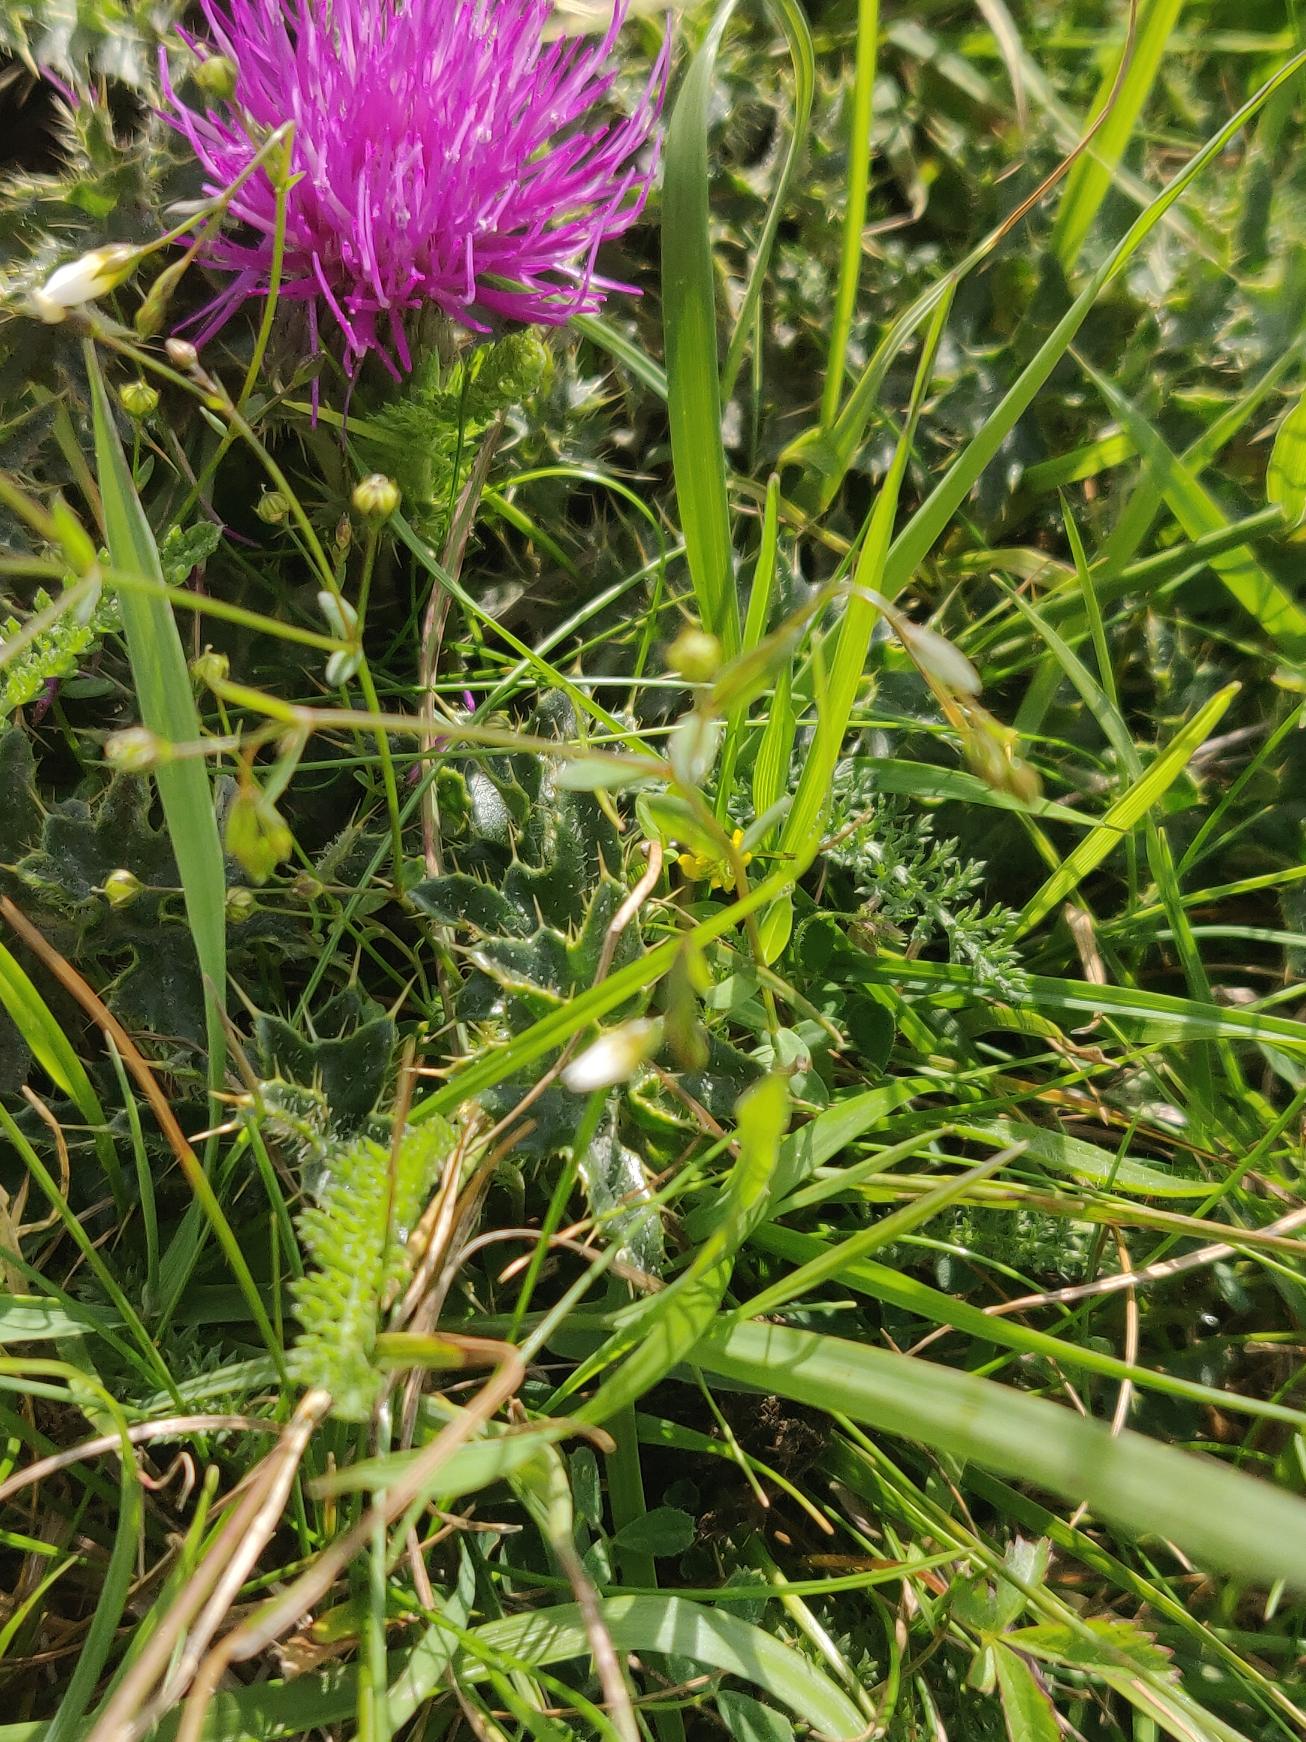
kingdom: Plantae
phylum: Tracheophyta
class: Magnoliopsida
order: Malpighiales
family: Linaceae
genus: Linum
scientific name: Linum catharticum
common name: Vild hør
